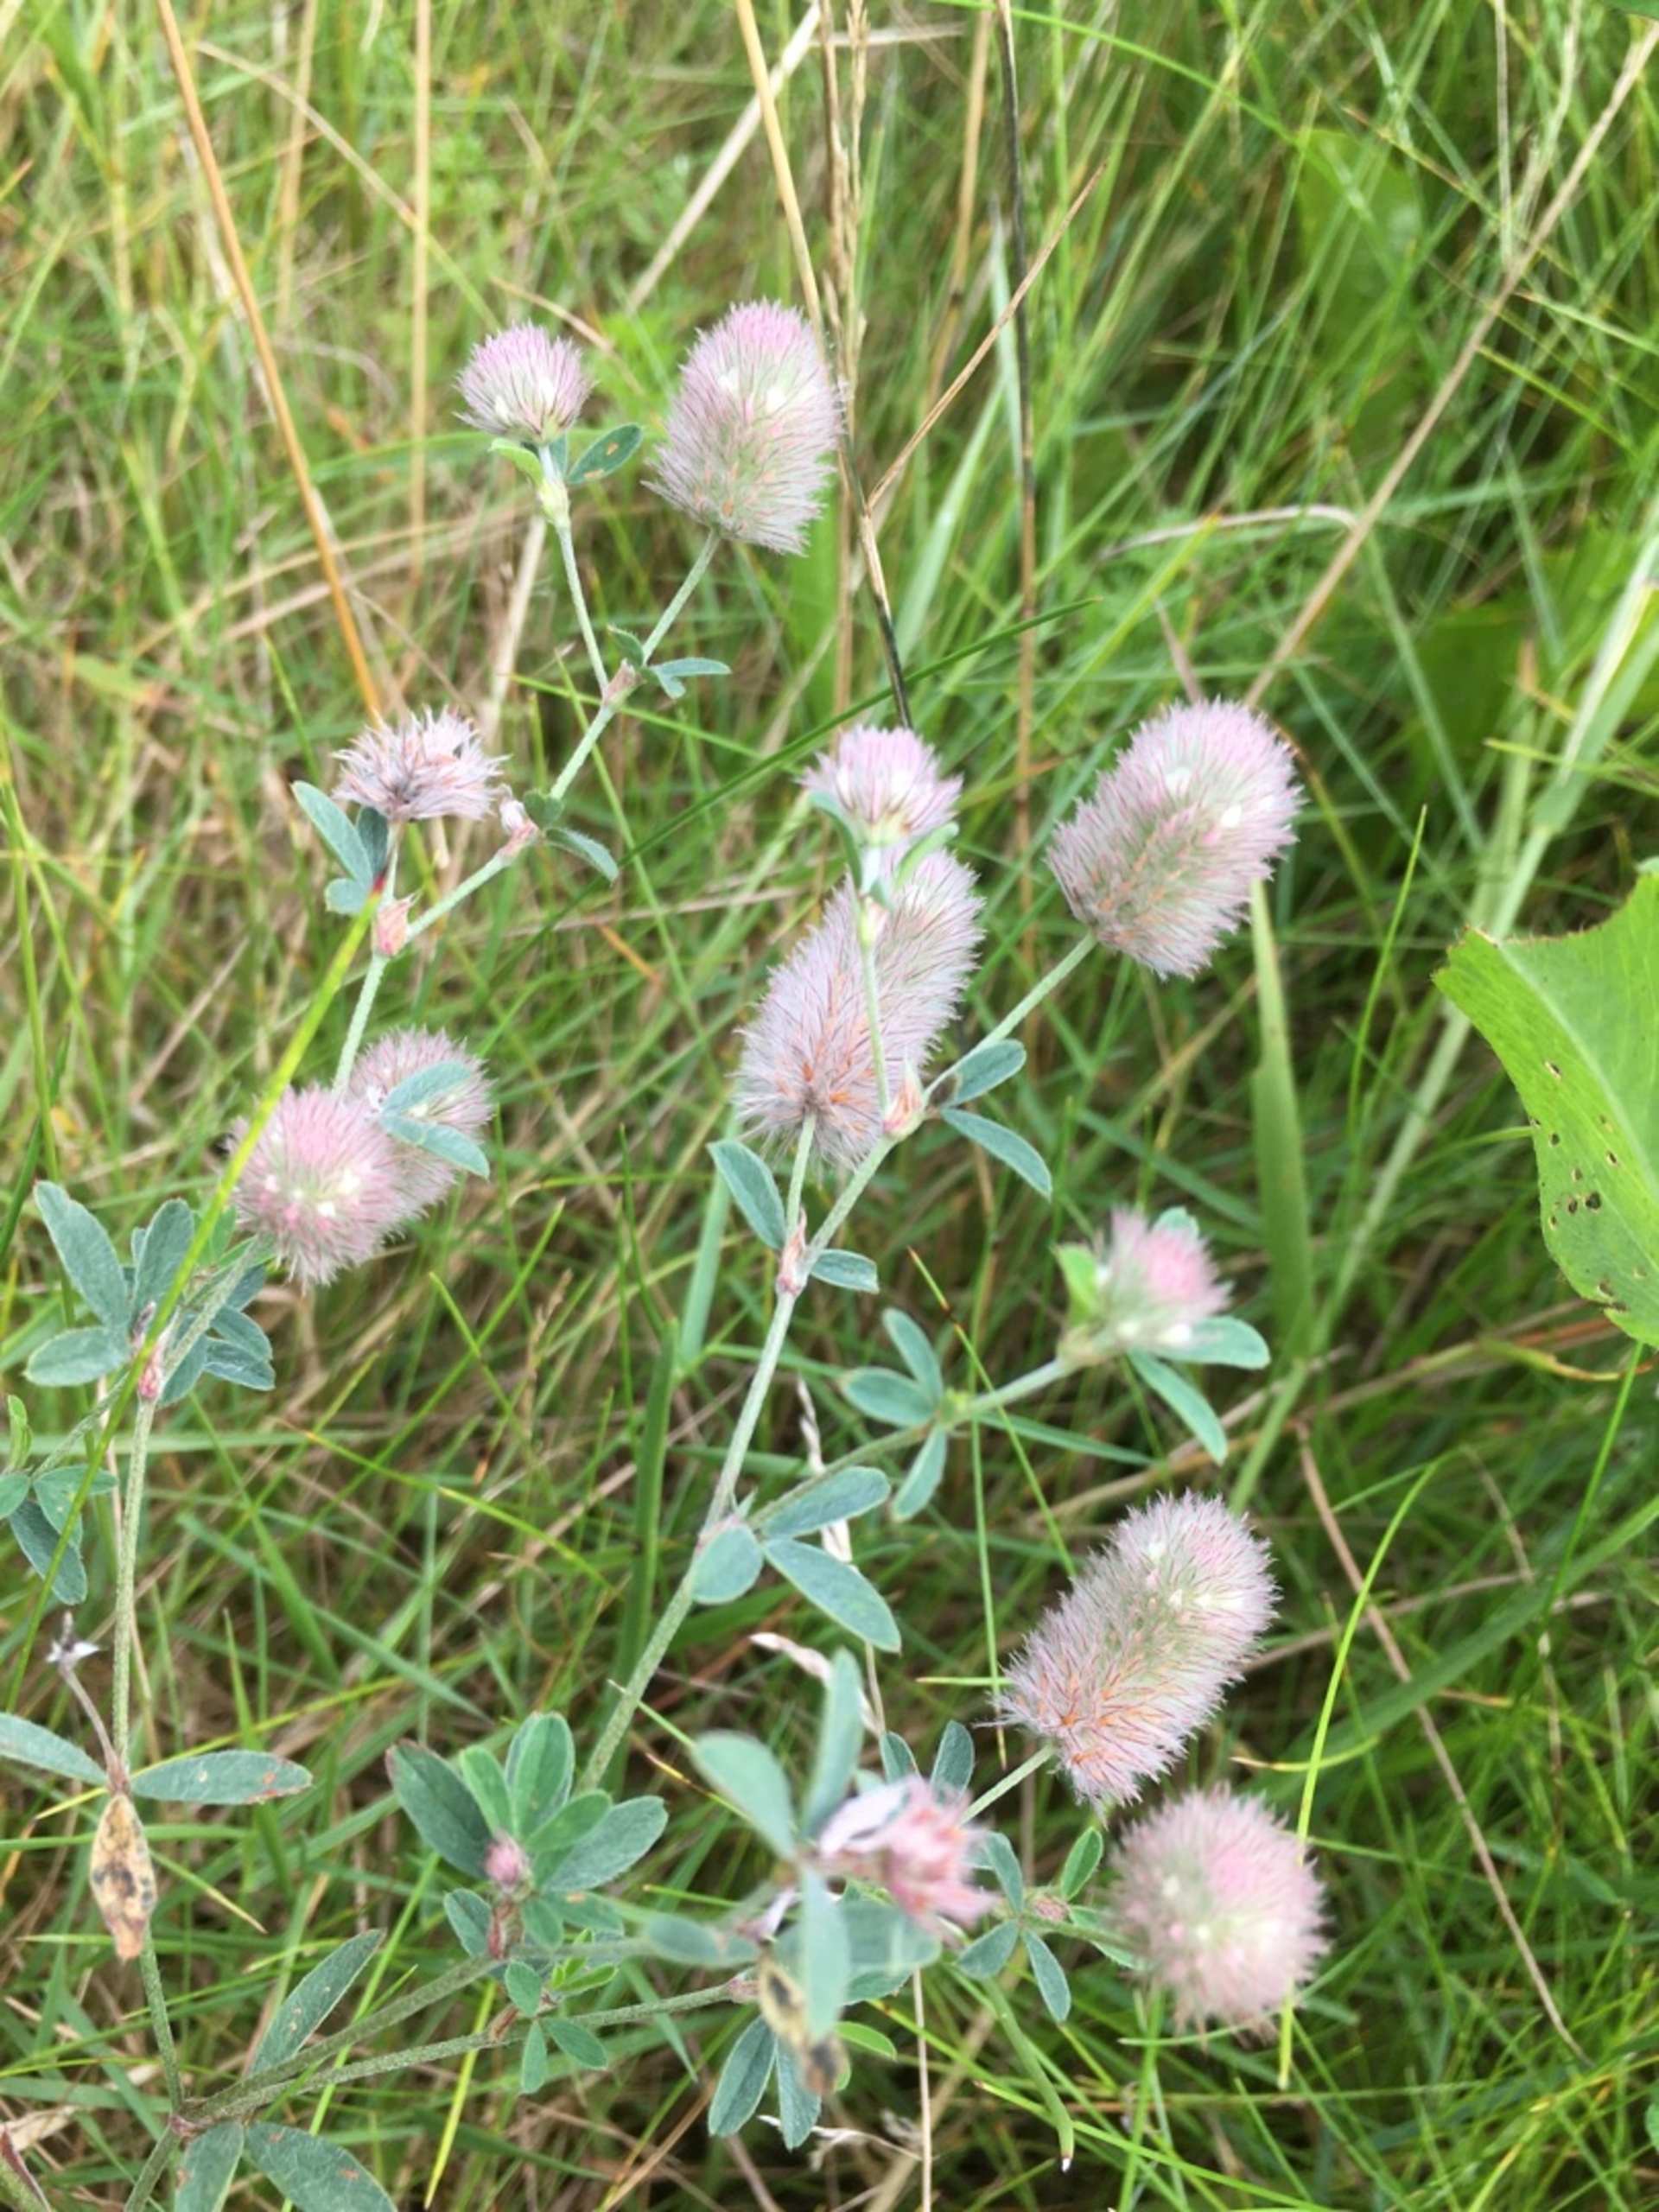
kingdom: Plantae
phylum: Tracheophyta
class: Magnoliopsida
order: Fabales
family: Fabaceae
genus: Trifolium
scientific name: Trifolium arvense
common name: Hare-kløver
